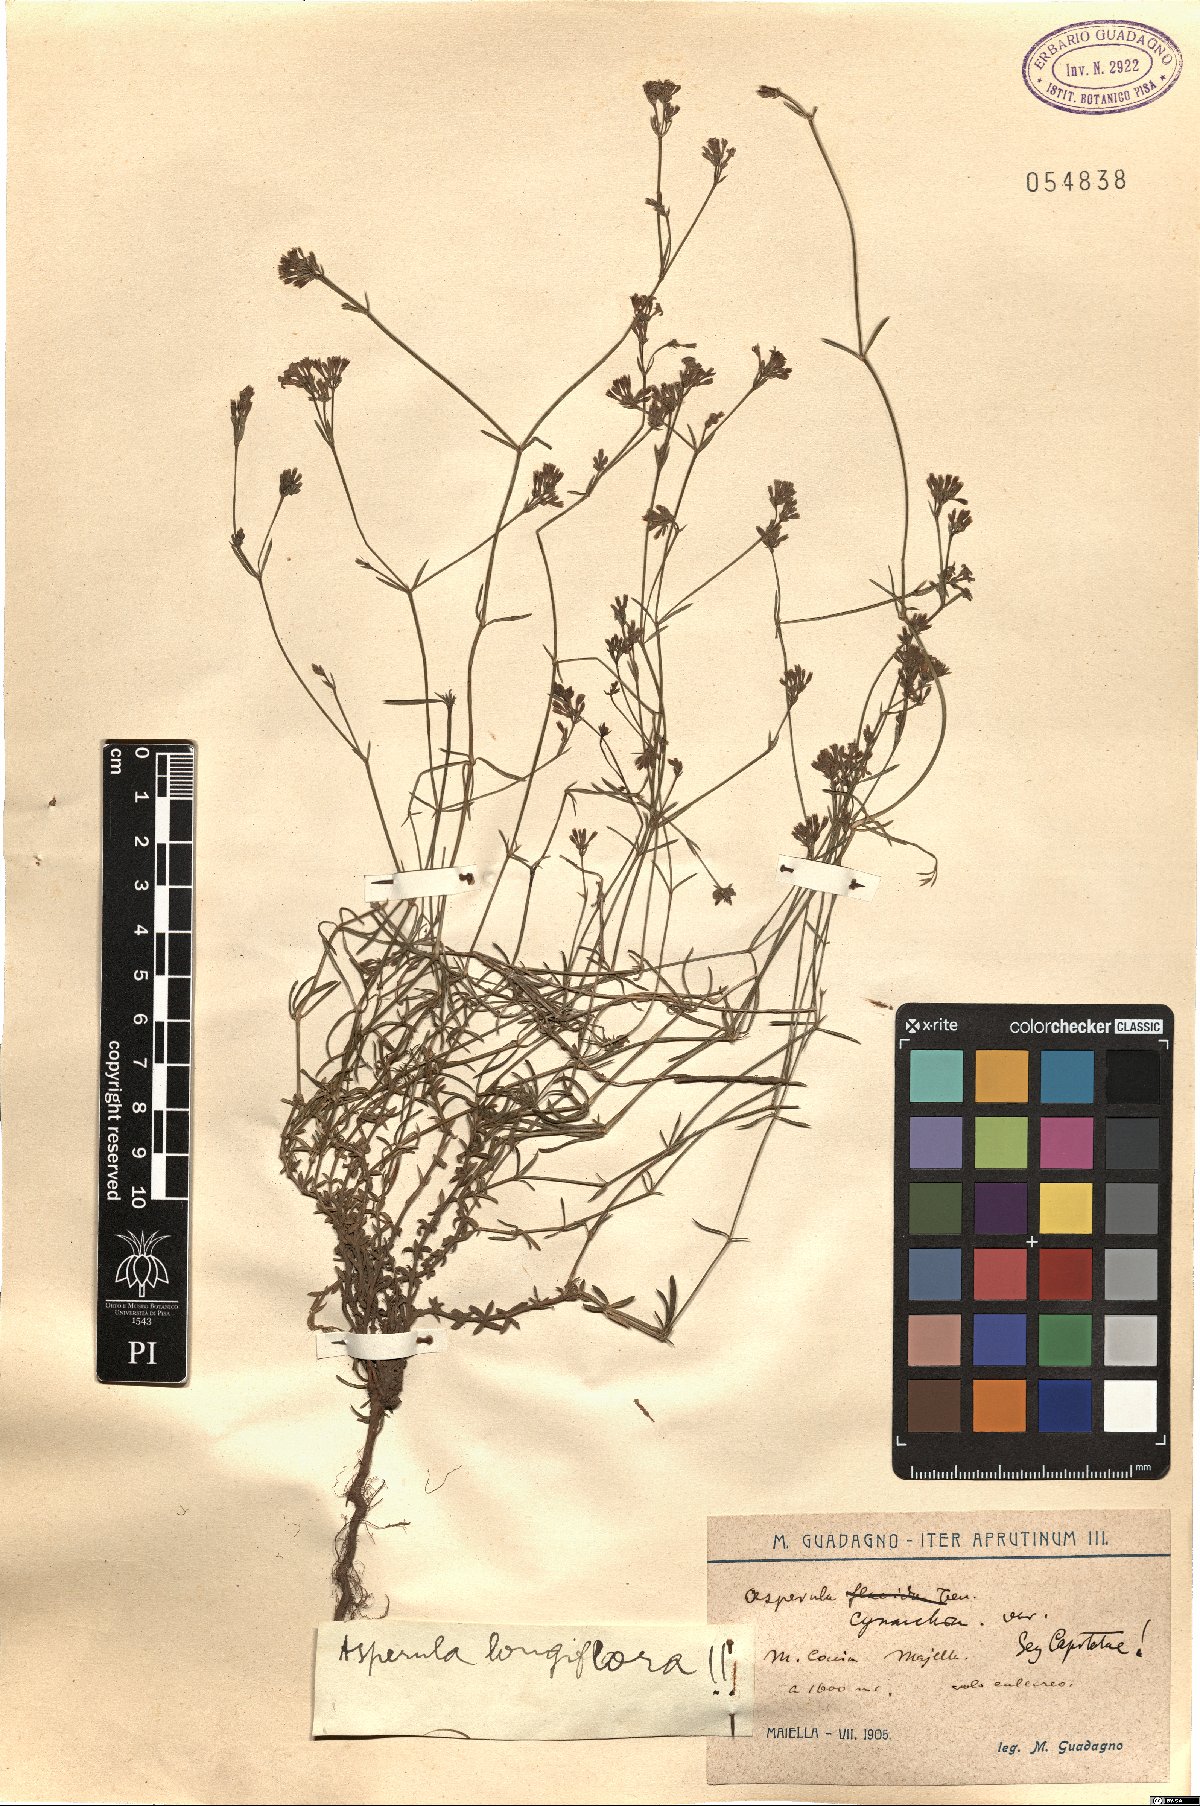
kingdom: Plantae
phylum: Tracheophyta
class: Magnoliopsida
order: Gentianales
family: Rubiaceae
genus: Cynanchica
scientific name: Cynanchica aristata
